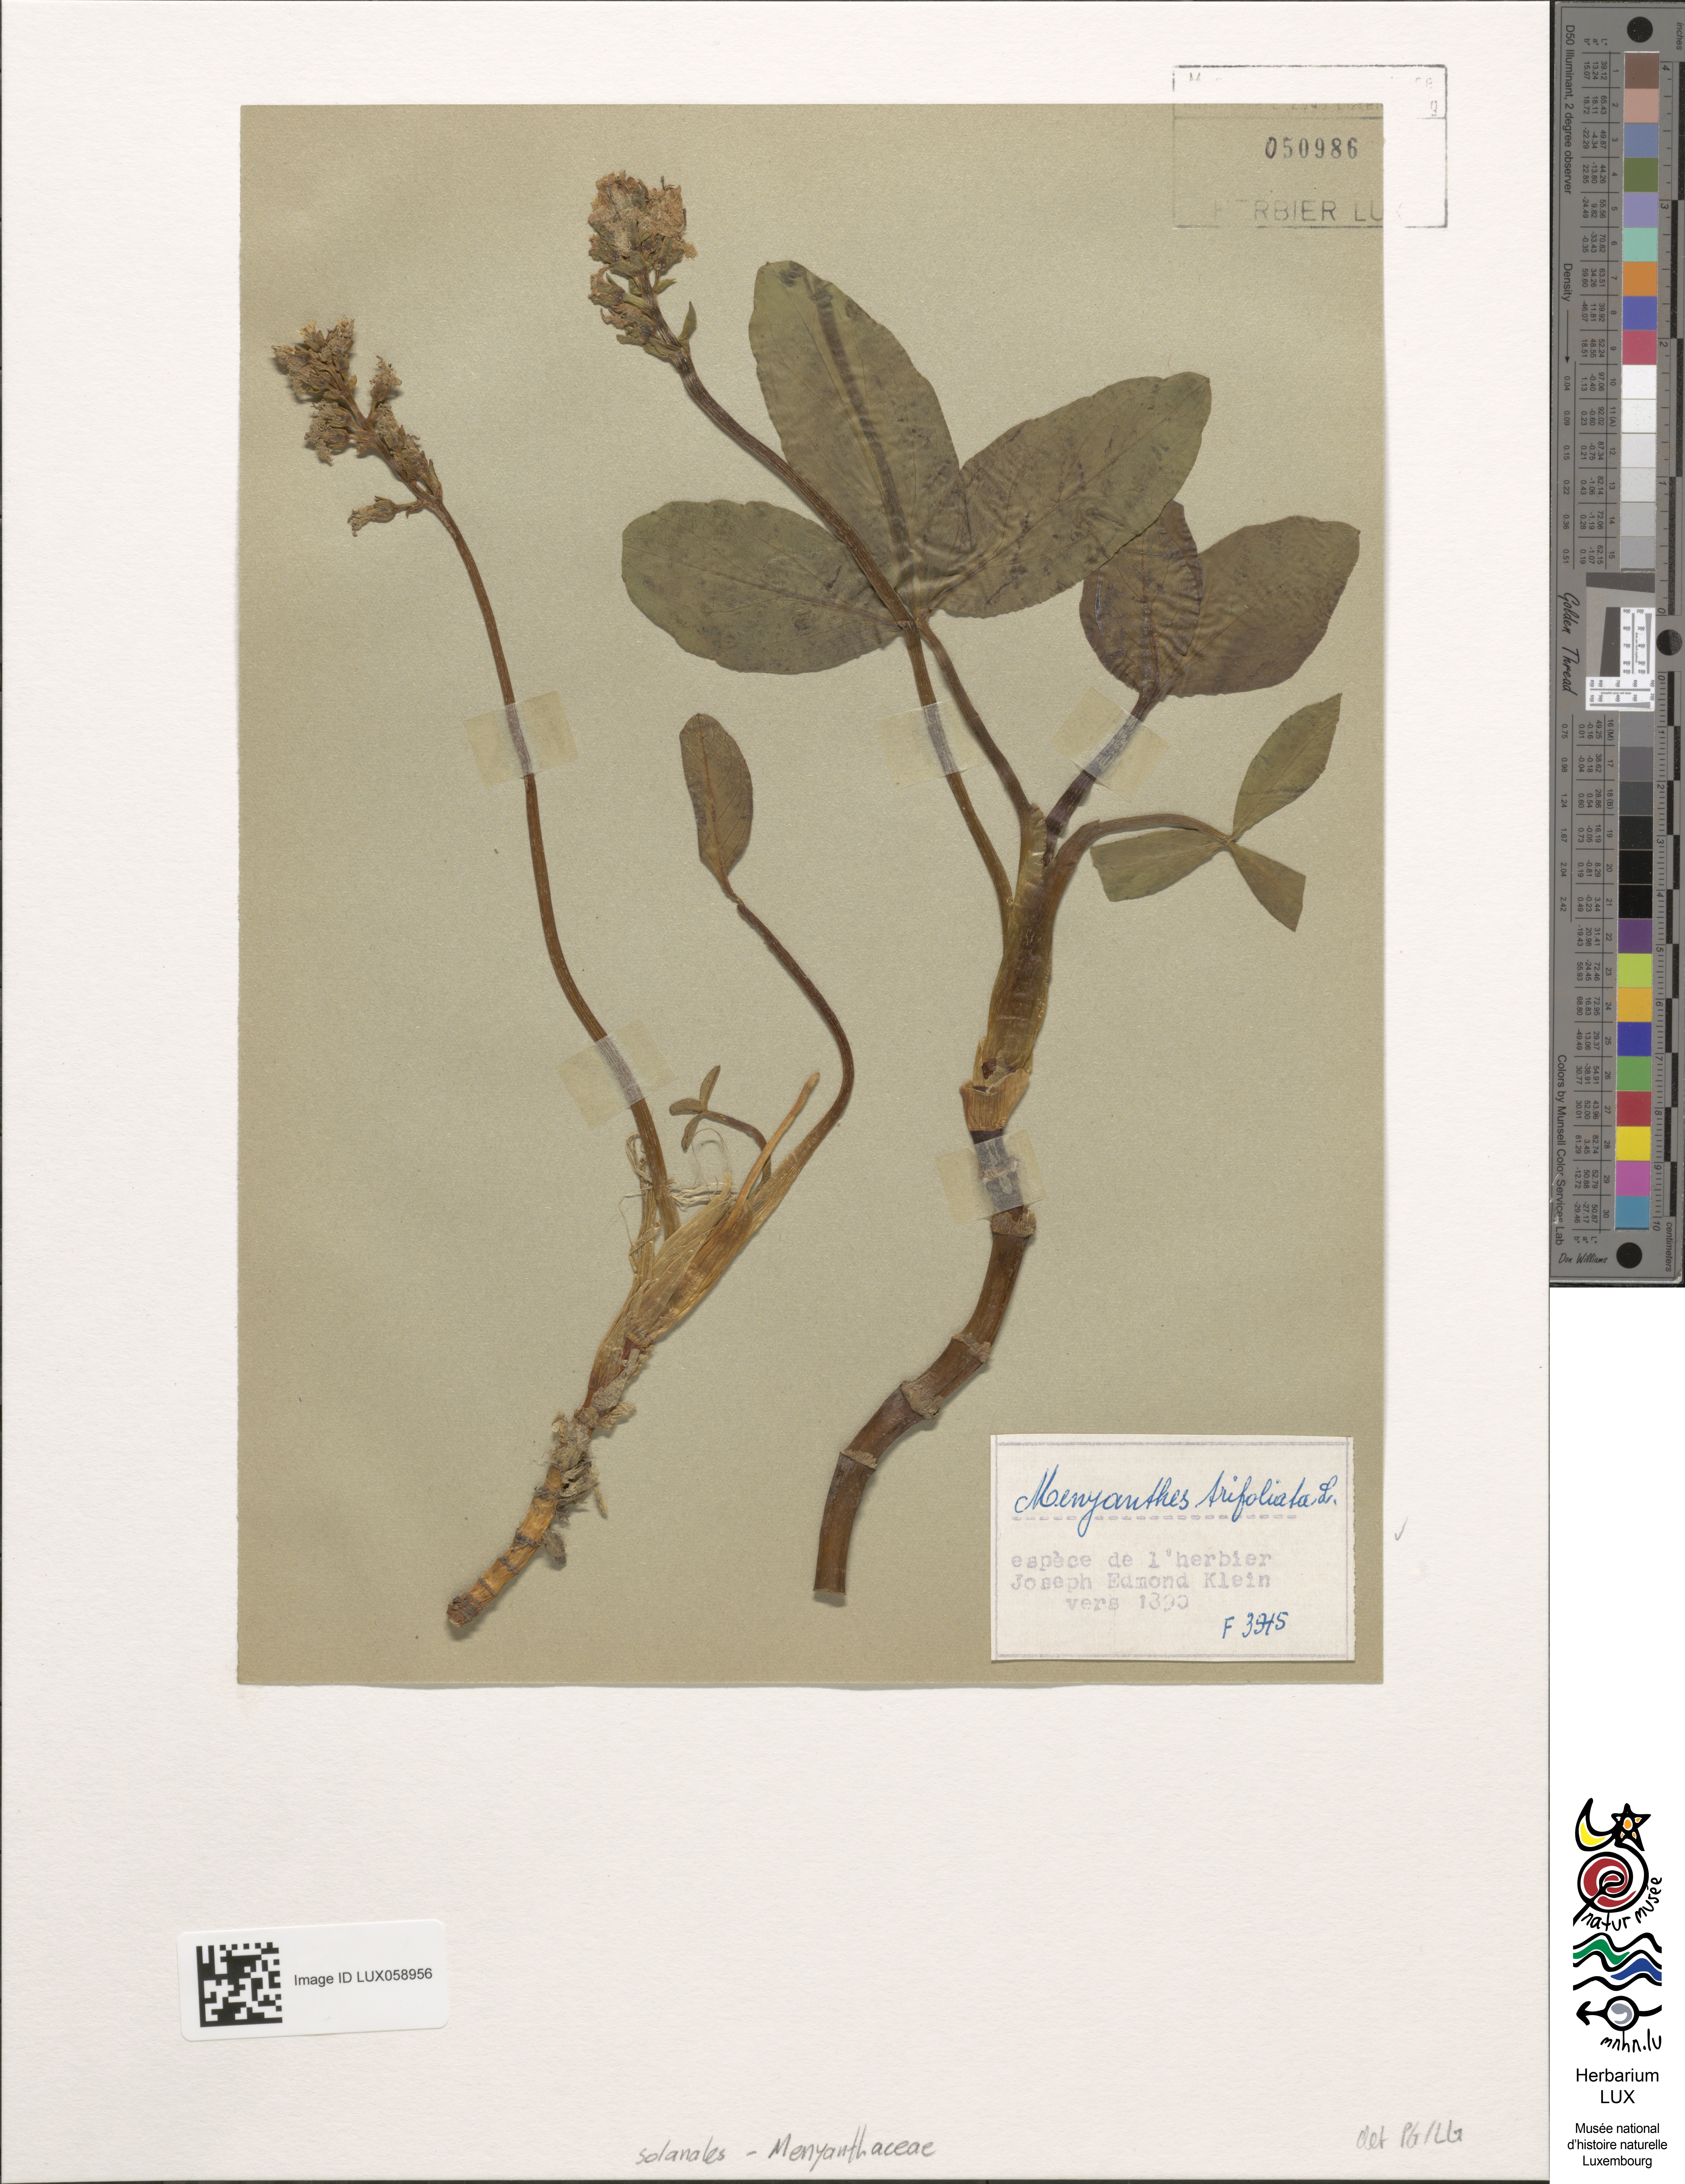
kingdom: Plantae
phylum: Tracheophyta
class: Magnoliopsida
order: Asterales
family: Menyanthaceae
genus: Menyanthes
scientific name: Menyanthes trifoliata
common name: Bogbean
